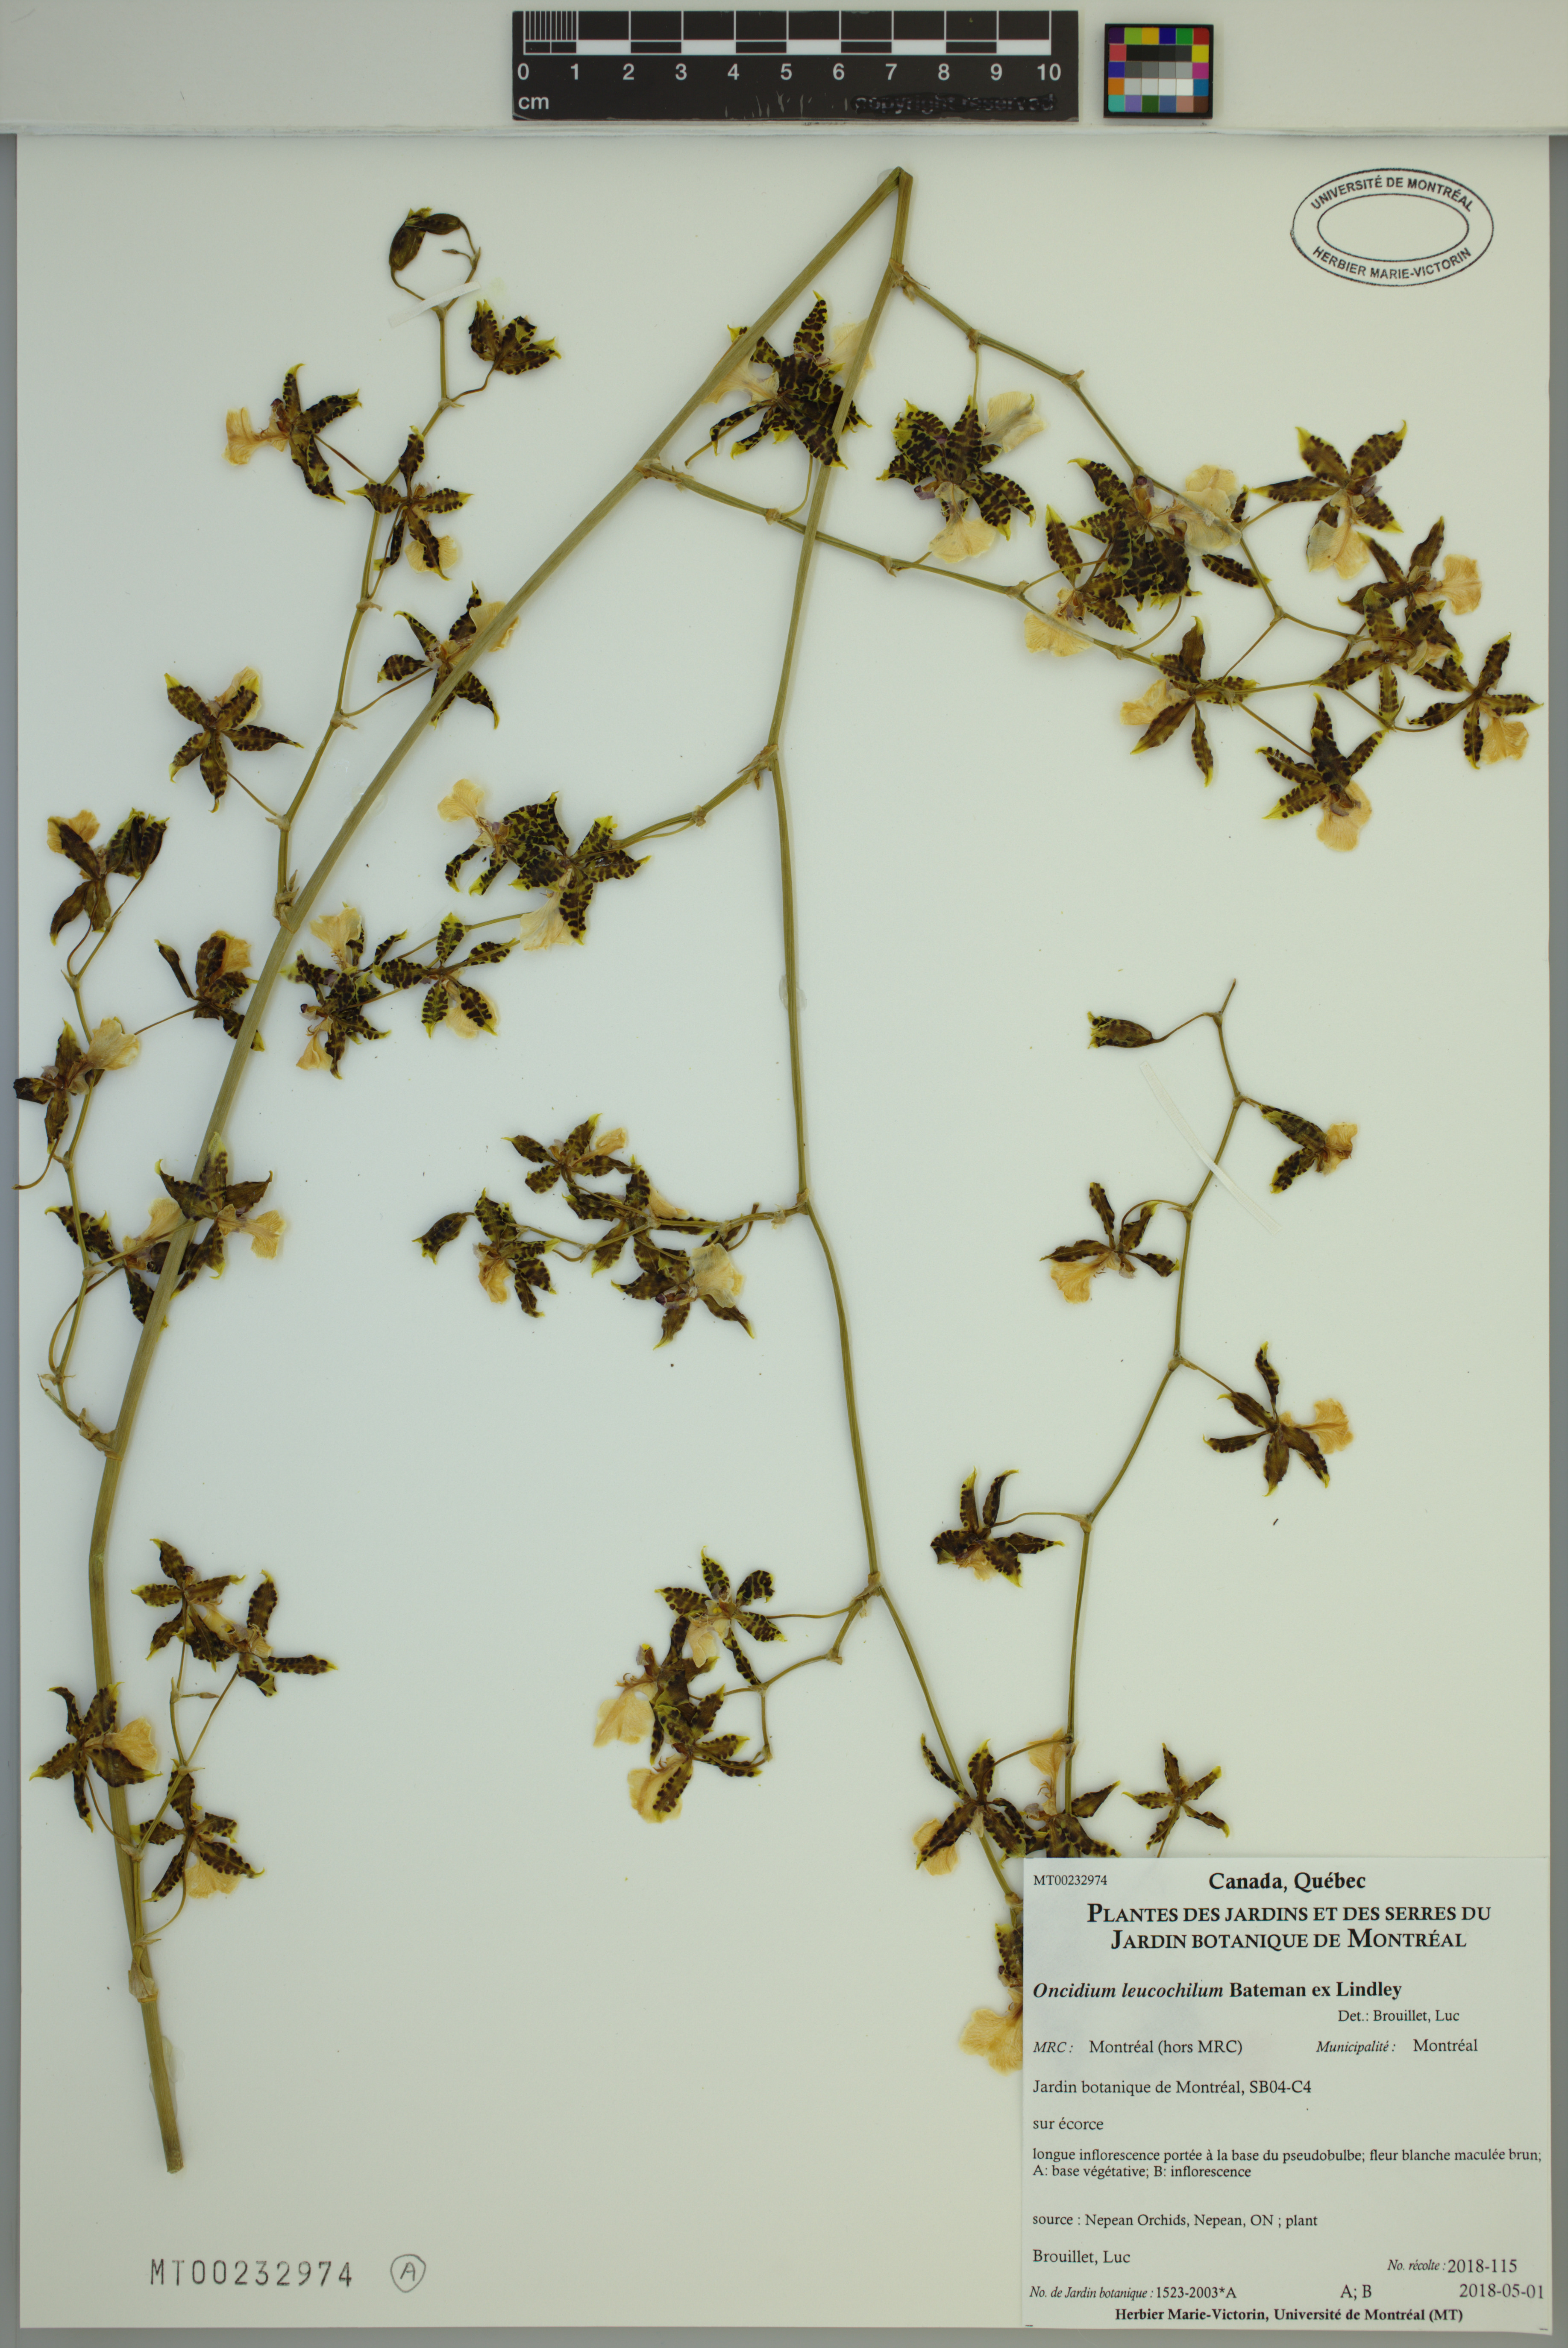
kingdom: Plantae
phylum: Tracheophyta
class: Liliopsida
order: Asparagales
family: Orchidaceae
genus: Oncidium
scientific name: Oncidium leucochilum
